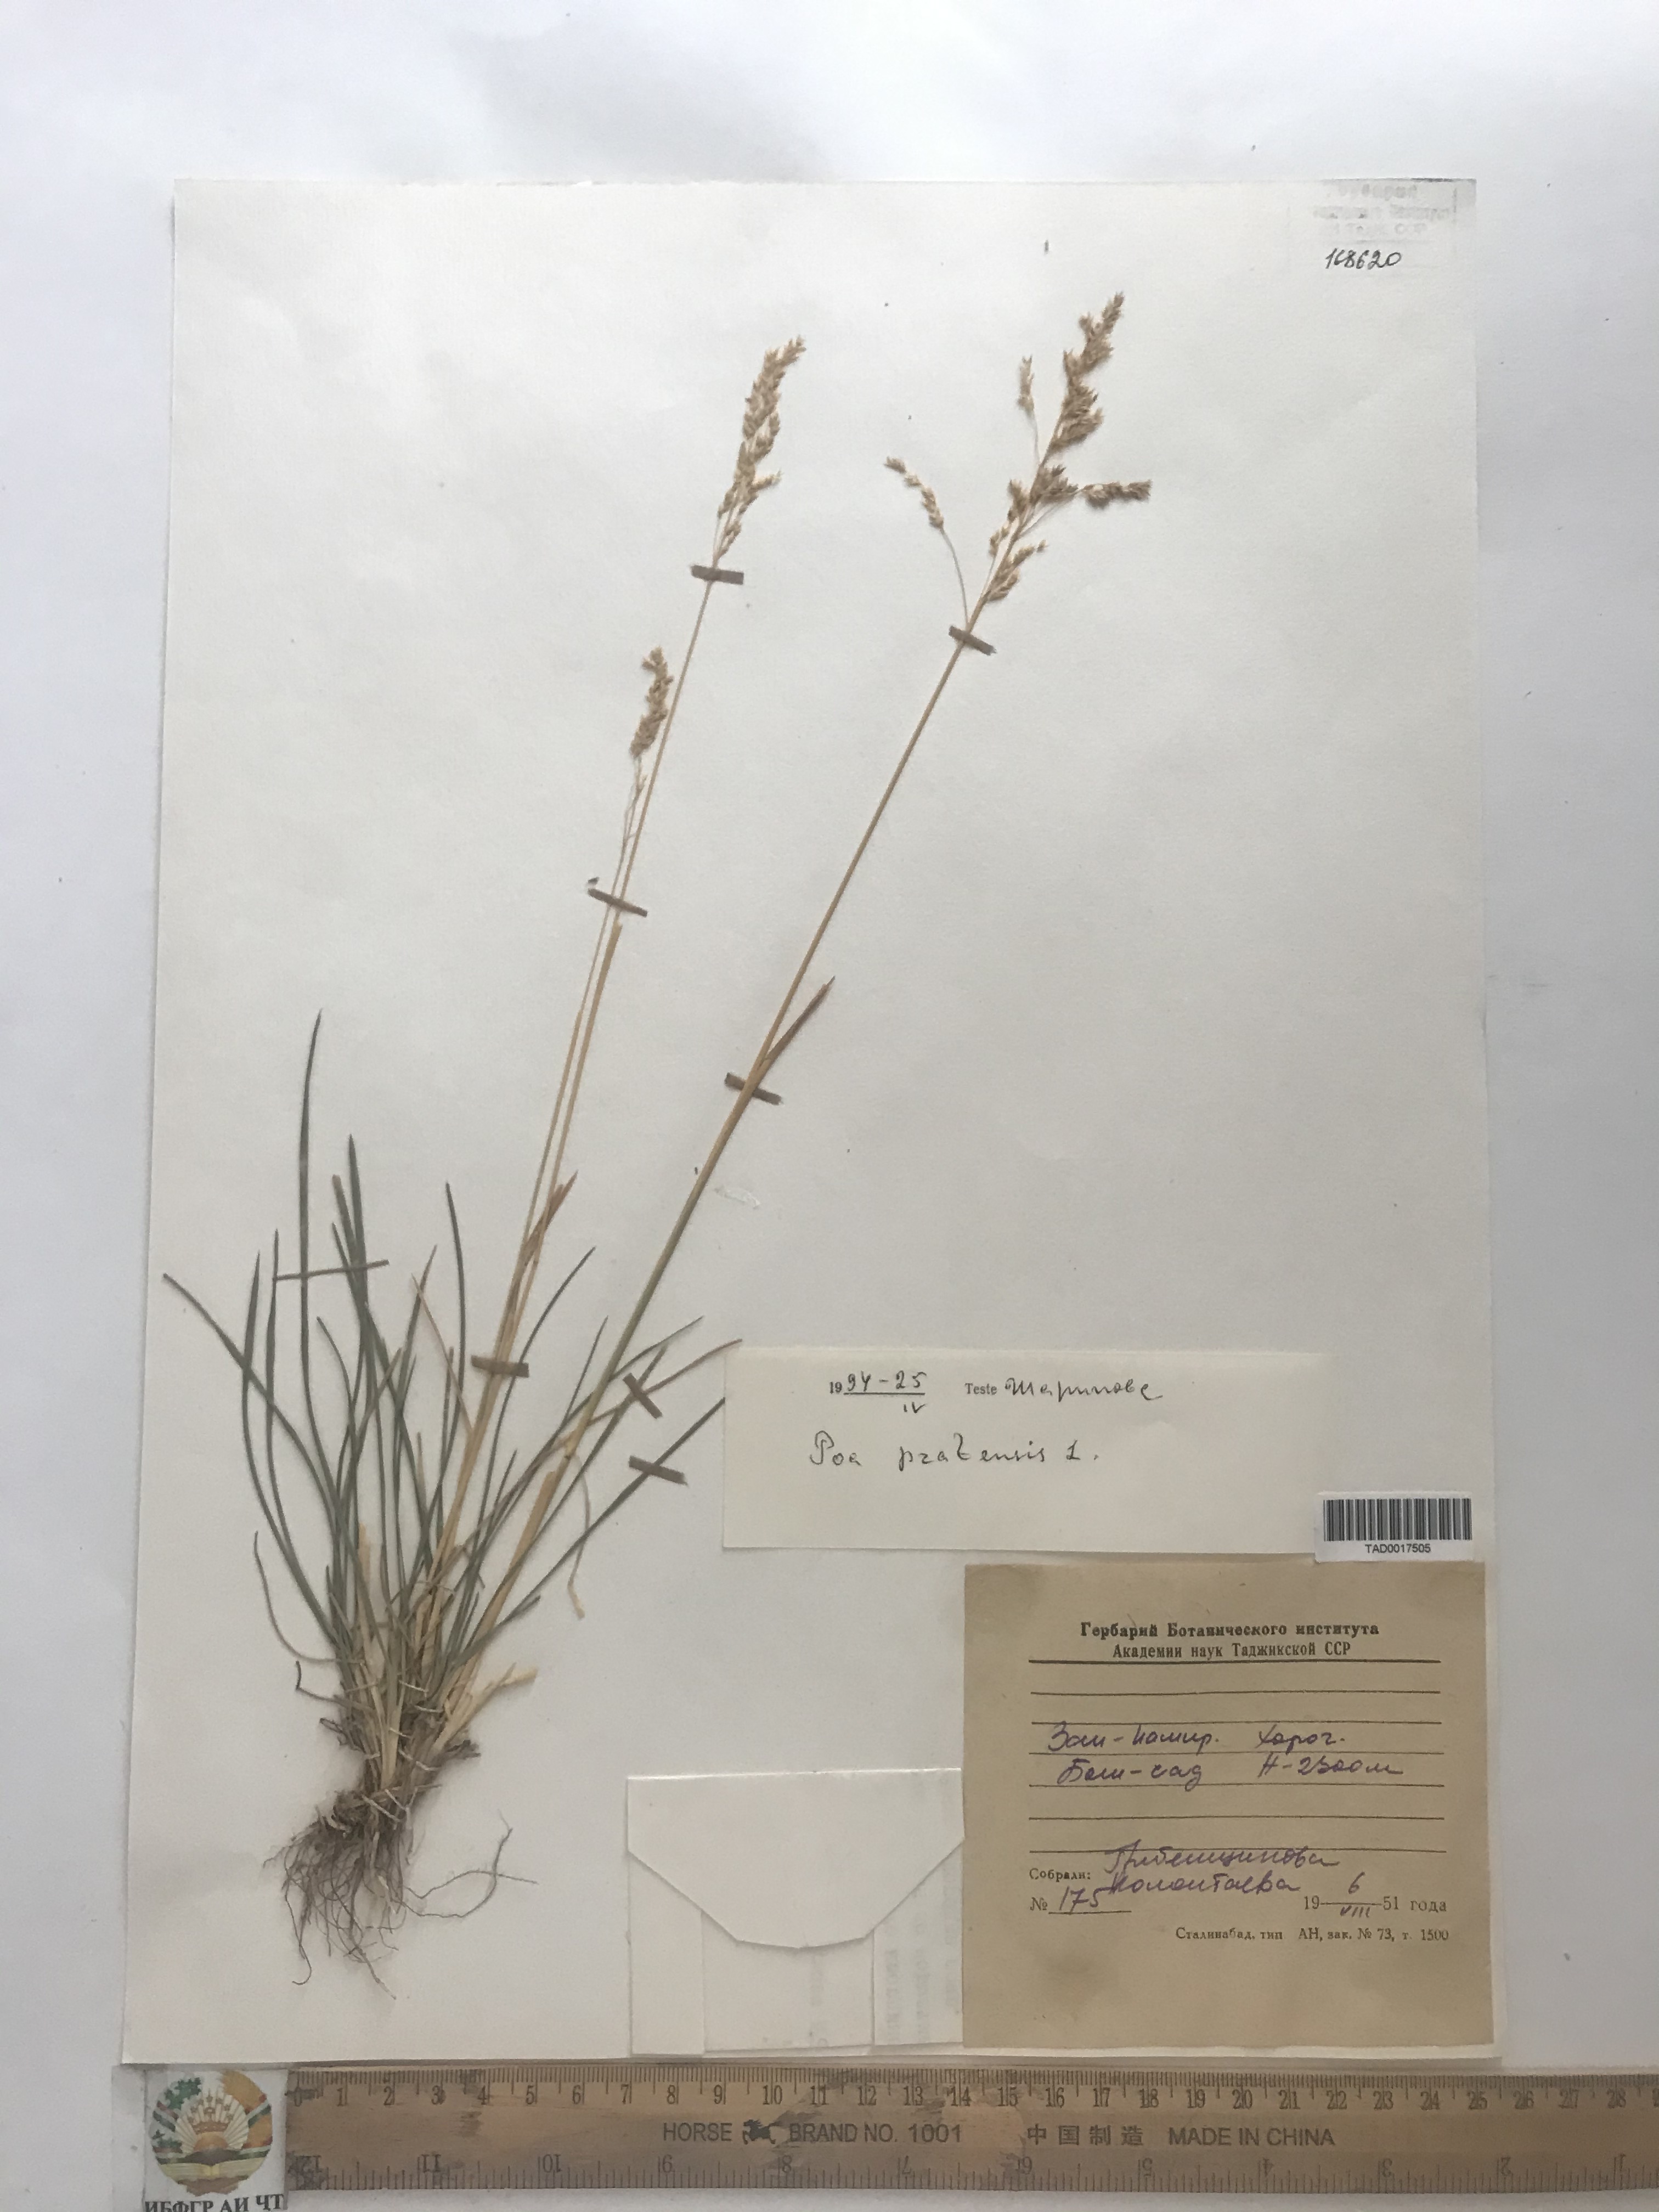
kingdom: Plantae
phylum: Tracheophyta
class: Liliopsida
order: Poales
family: Poaceae
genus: Poa
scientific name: Poa pratensis
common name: Kentucky bluegrass
